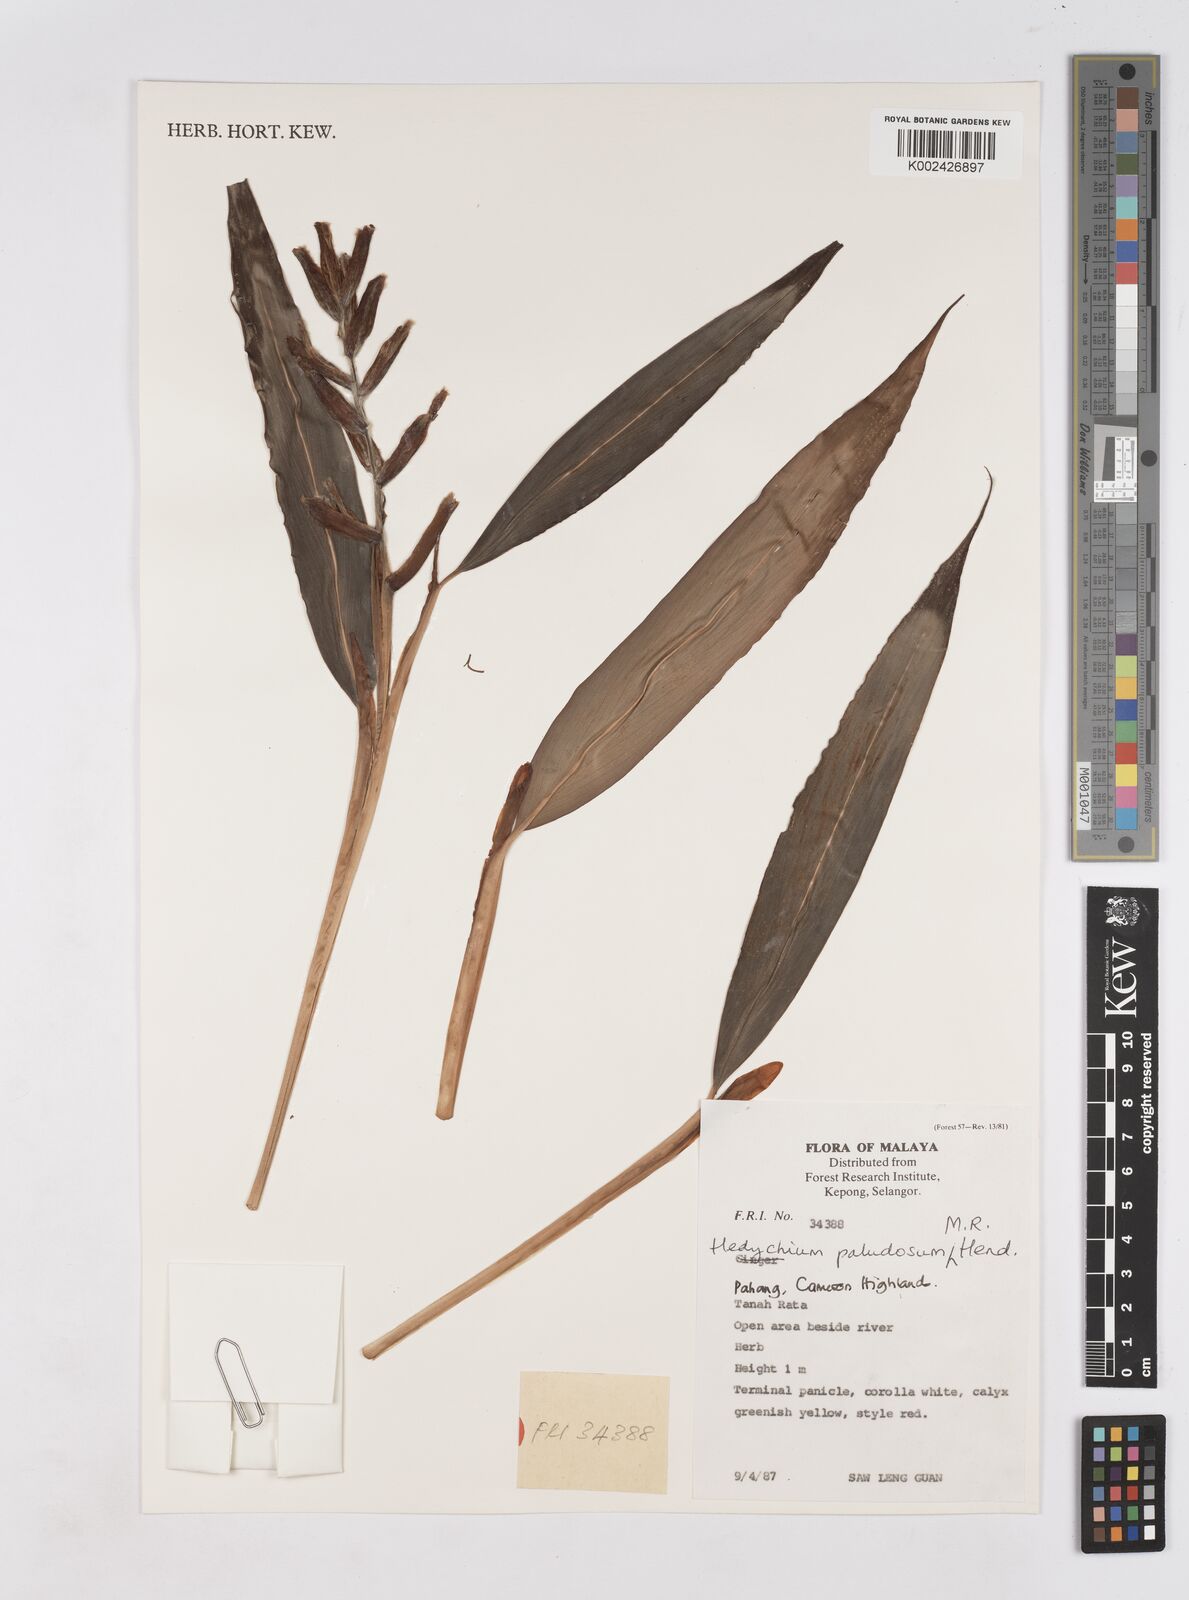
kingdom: Plantae
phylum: Tracheophyta
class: Liliopsida
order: Zingiberales
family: Zingiberaceae
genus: Hedychium
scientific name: Hedychium paludosum
